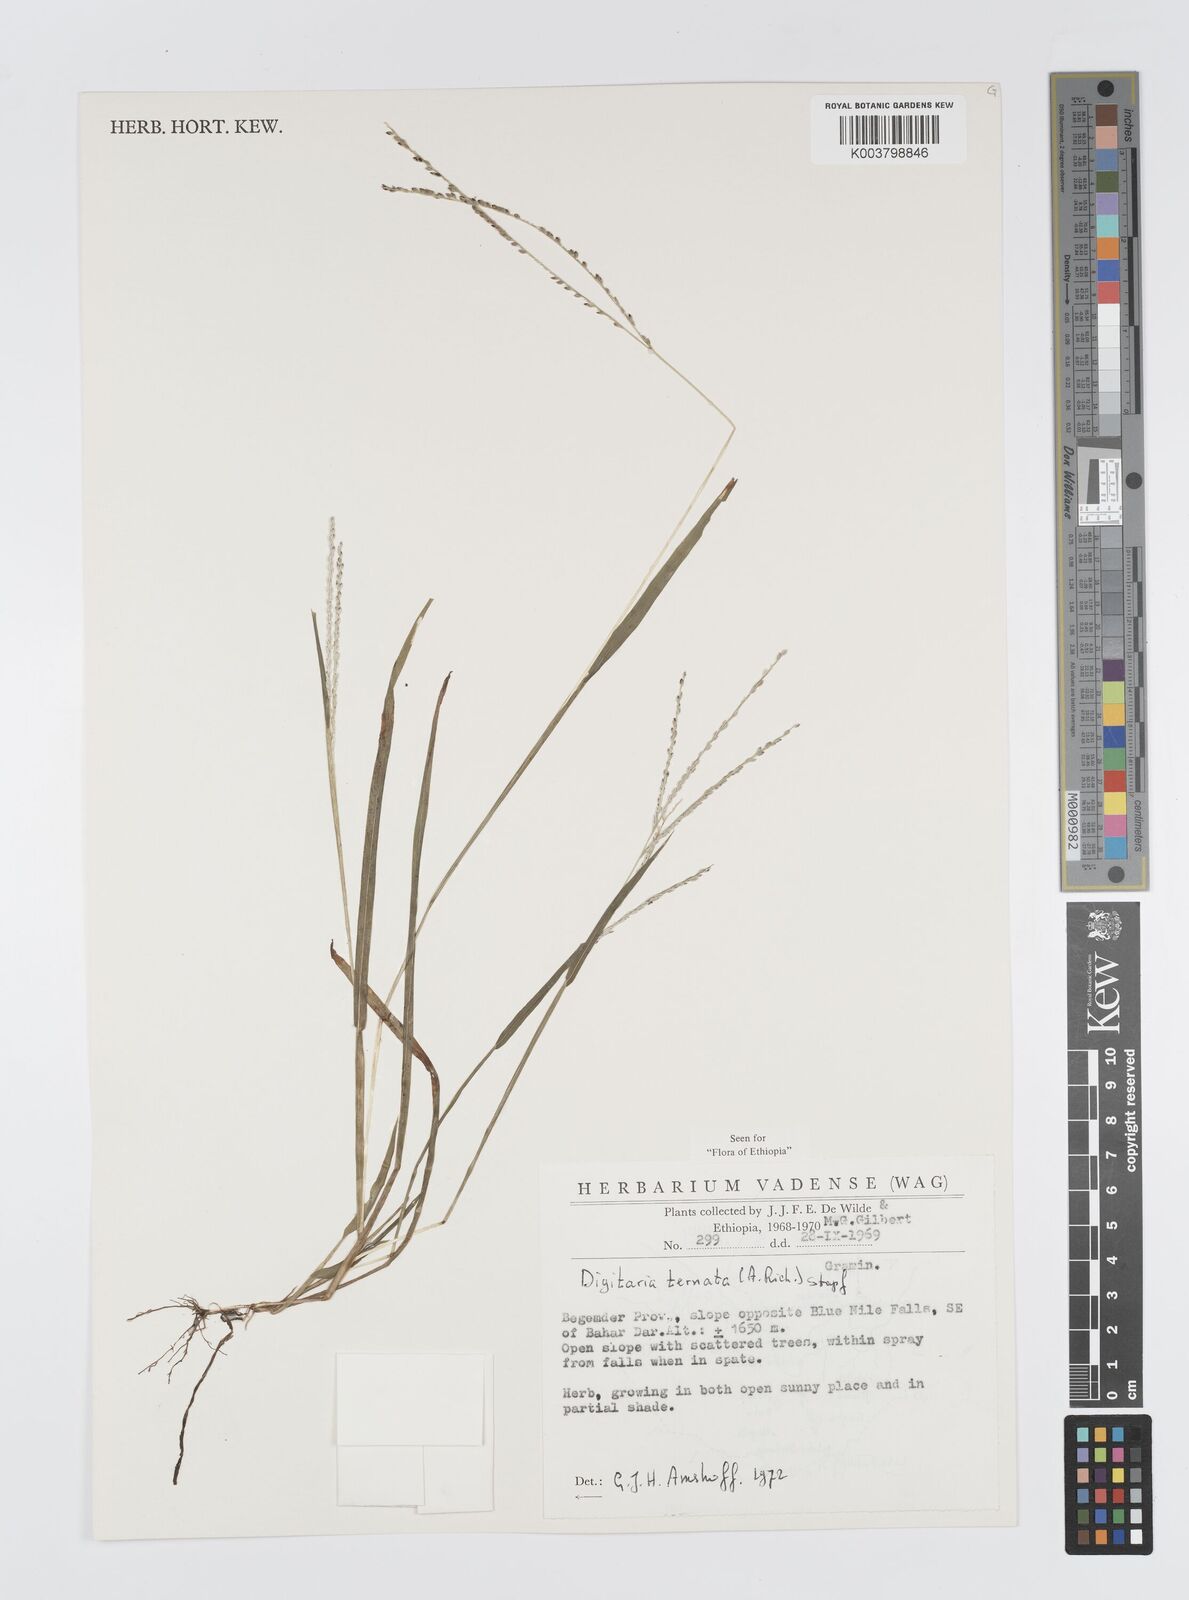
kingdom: Plantae
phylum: Tracheophyta
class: Liliopsida
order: Poales
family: Poaceae
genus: Digitaria
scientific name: Digitaria ternata
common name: Blackseed crabgrass
